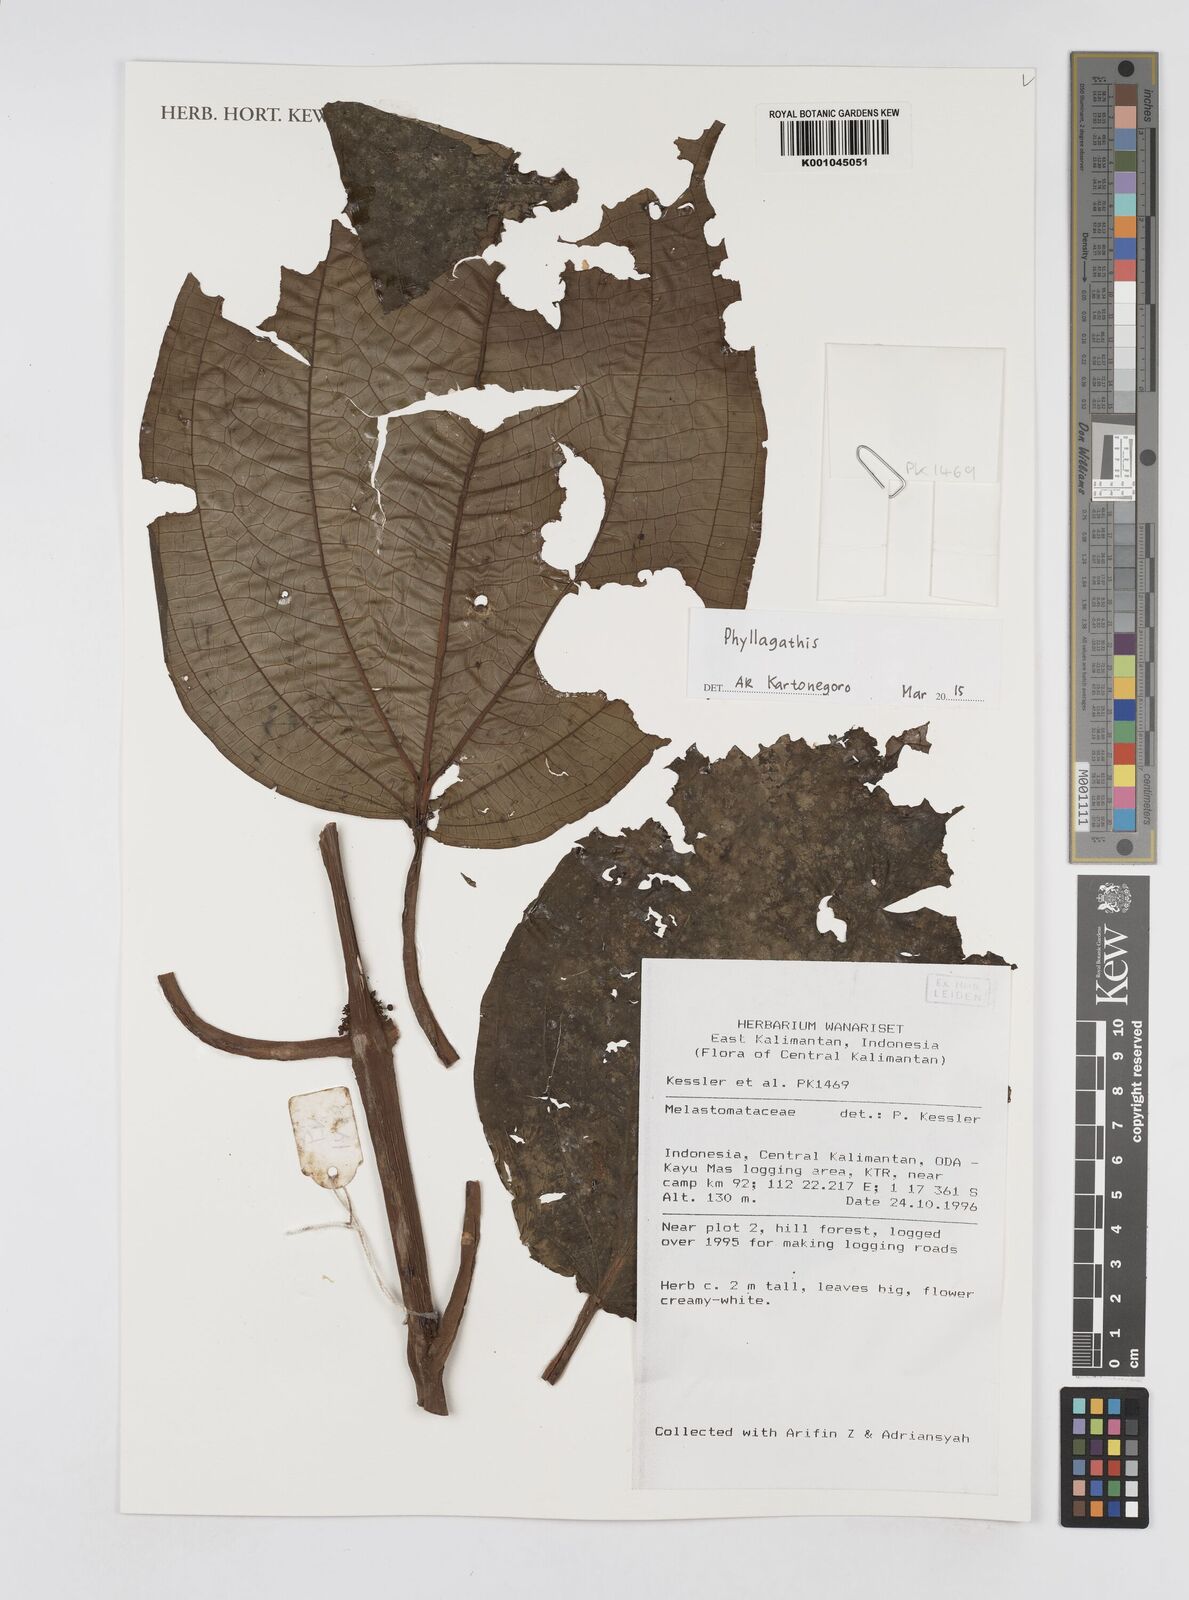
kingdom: Plantae
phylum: Tracheophyta
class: Magnoliopsida
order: Myrtales
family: Melastomataceae
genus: Phyllagathis
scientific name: Phyllagathis
